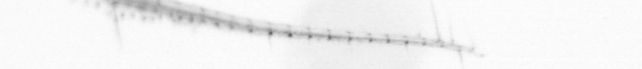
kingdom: Animalia
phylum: Arthropoda
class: Copepoda
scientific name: Copepoda
